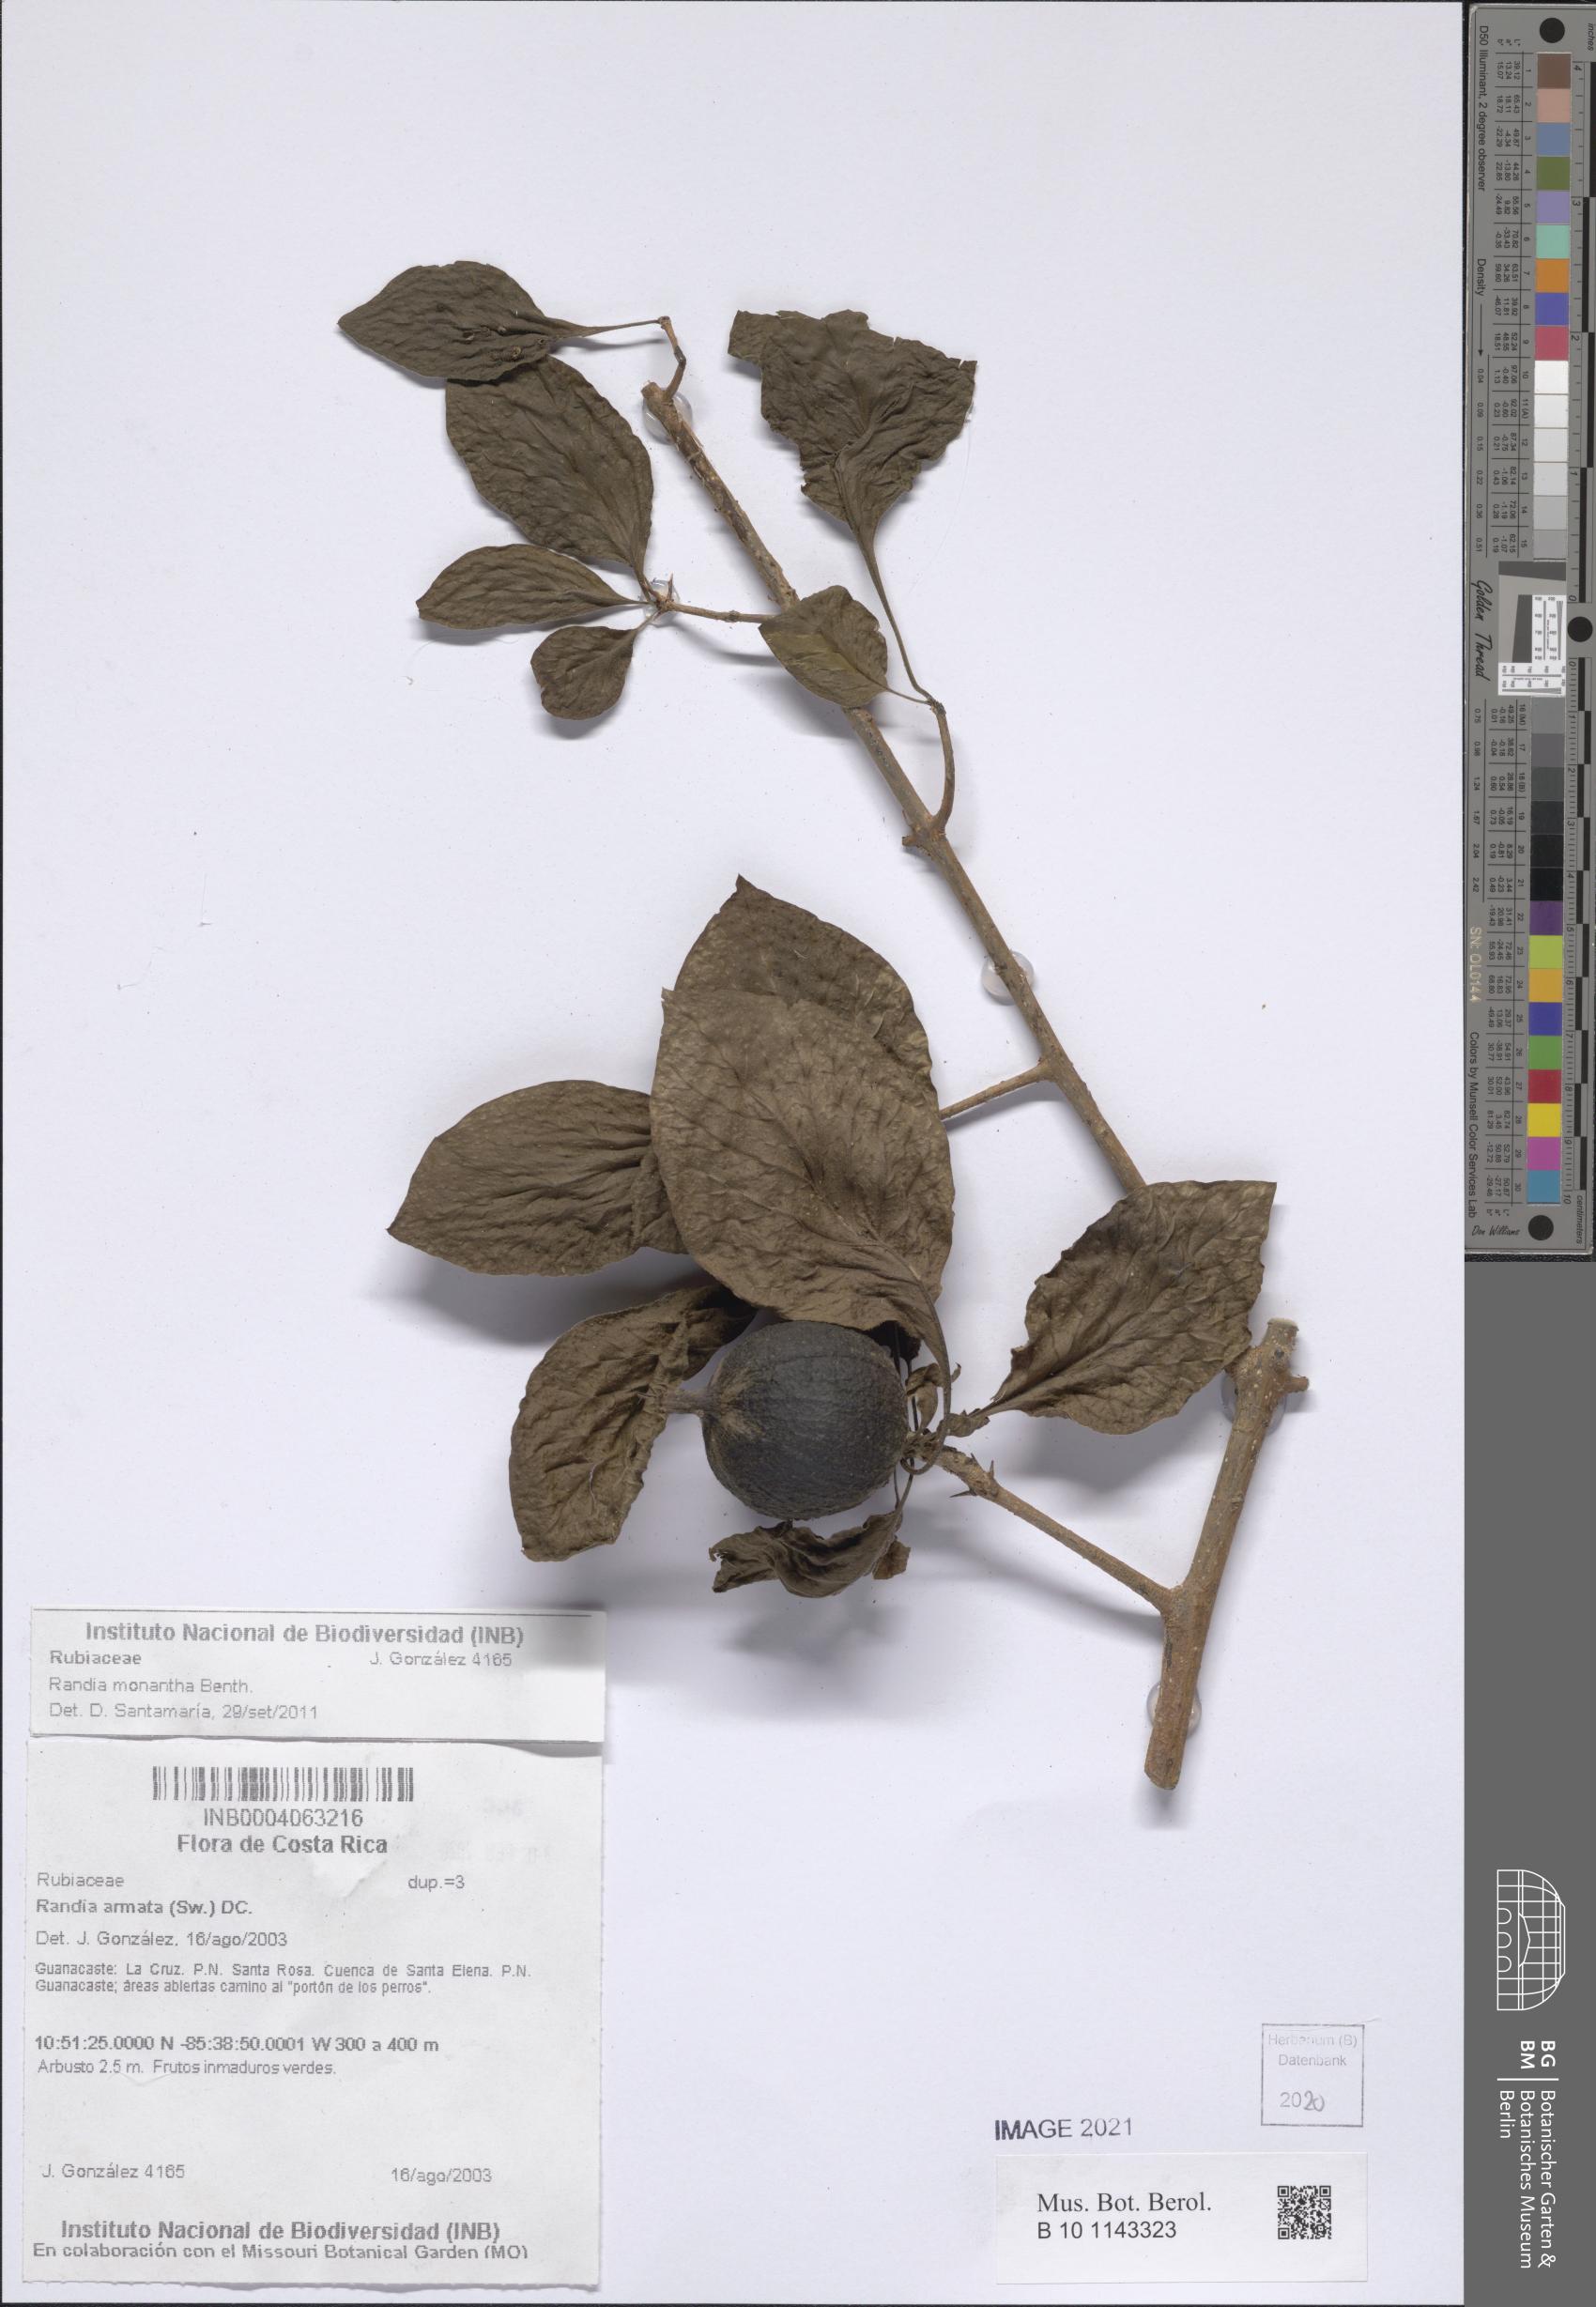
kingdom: Plantae
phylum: Tracheophyta
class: Magnoliopsida
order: Gentianales
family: Rubiaceae
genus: Randia
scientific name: Randia monantha
